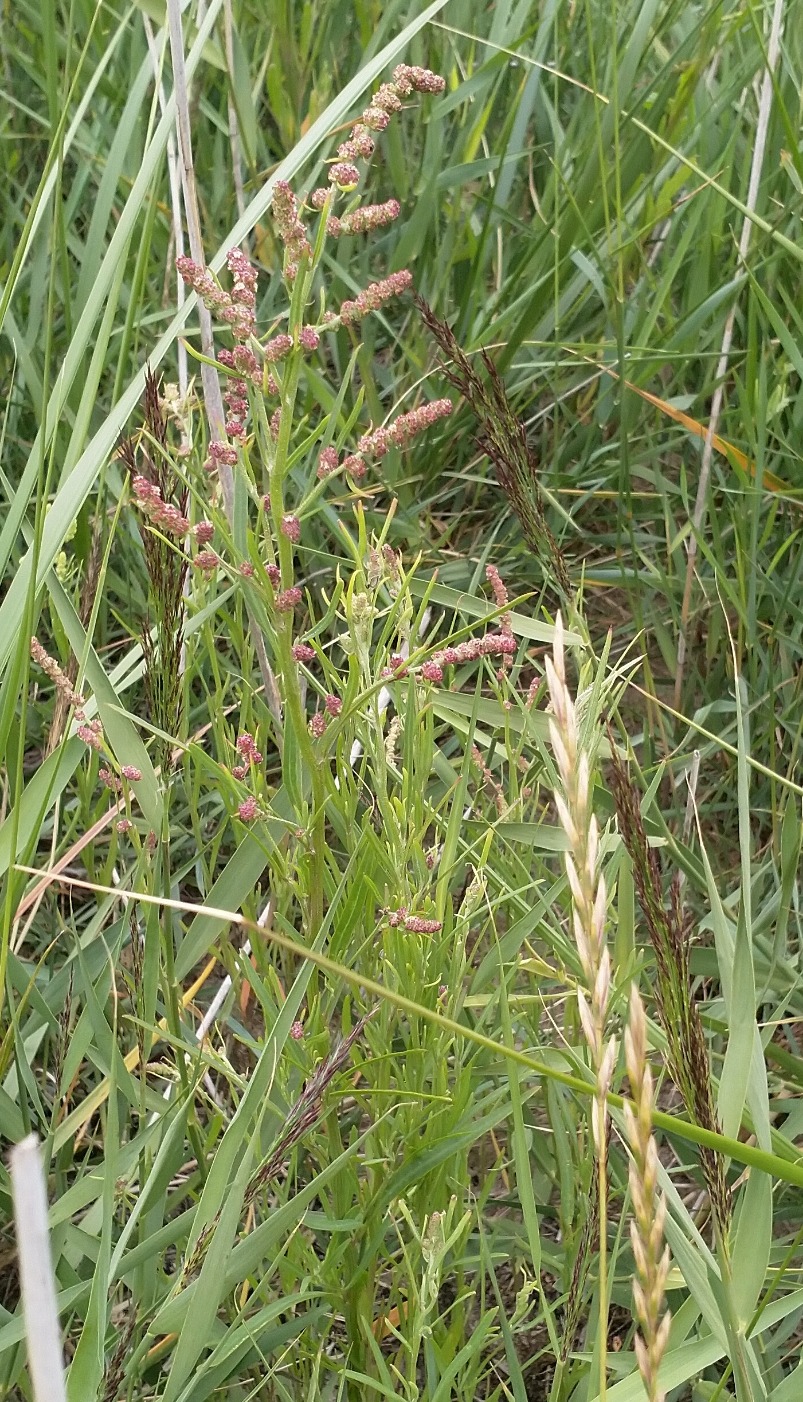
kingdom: Plantae
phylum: Tracheophyta
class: Magnoliopsida
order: Caryophyllales
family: Amaranthaceae
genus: Atriplex
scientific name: Atriplex littoralis
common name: Strand-mælde
